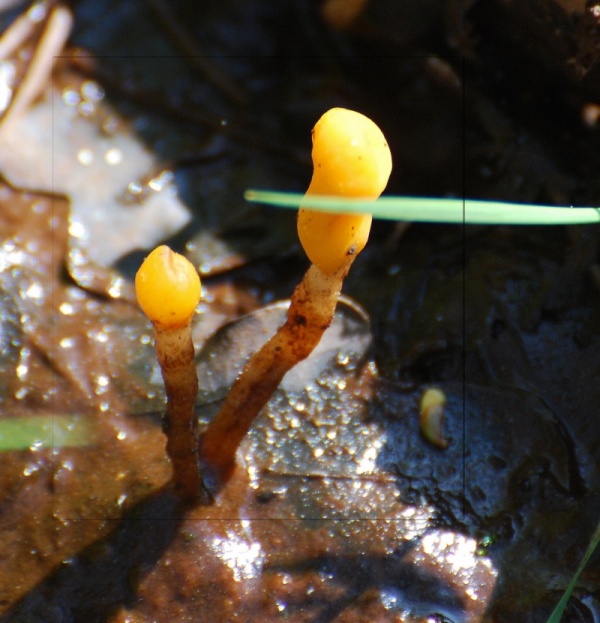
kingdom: Fungi
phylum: Ascomycota
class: Leotiomycetes
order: Helotiales
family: Cenangiaceae
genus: Mitrula
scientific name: Mitrula paludosa
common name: gul nøkketunge
